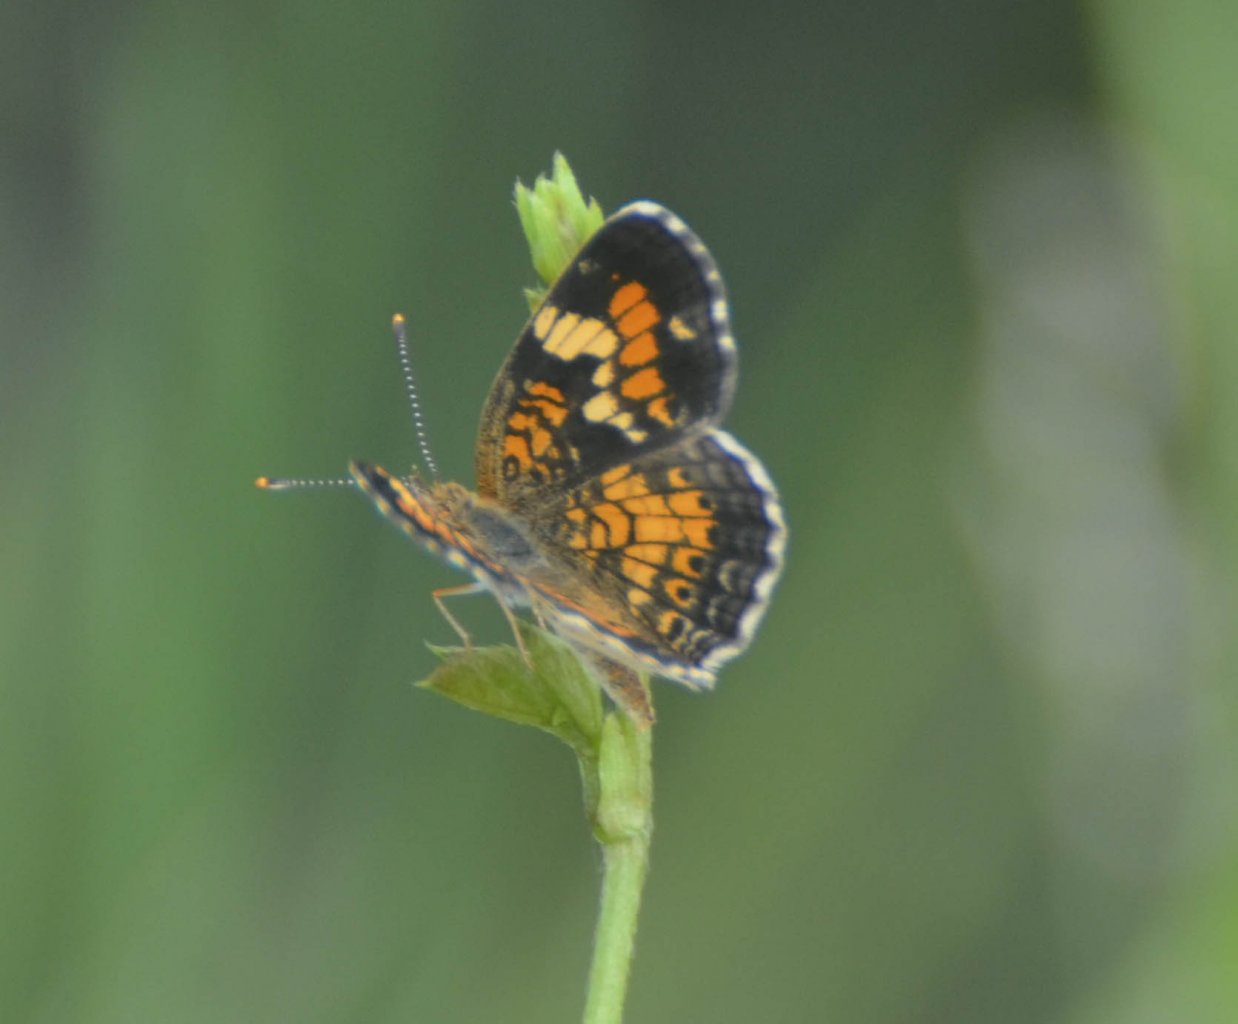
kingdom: Animalia
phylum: Arthropoda
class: Insecta
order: Lepidoptera
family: Nymphalidae
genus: Phyciodes
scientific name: Phyciodes phaon
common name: Phaon Crescent
